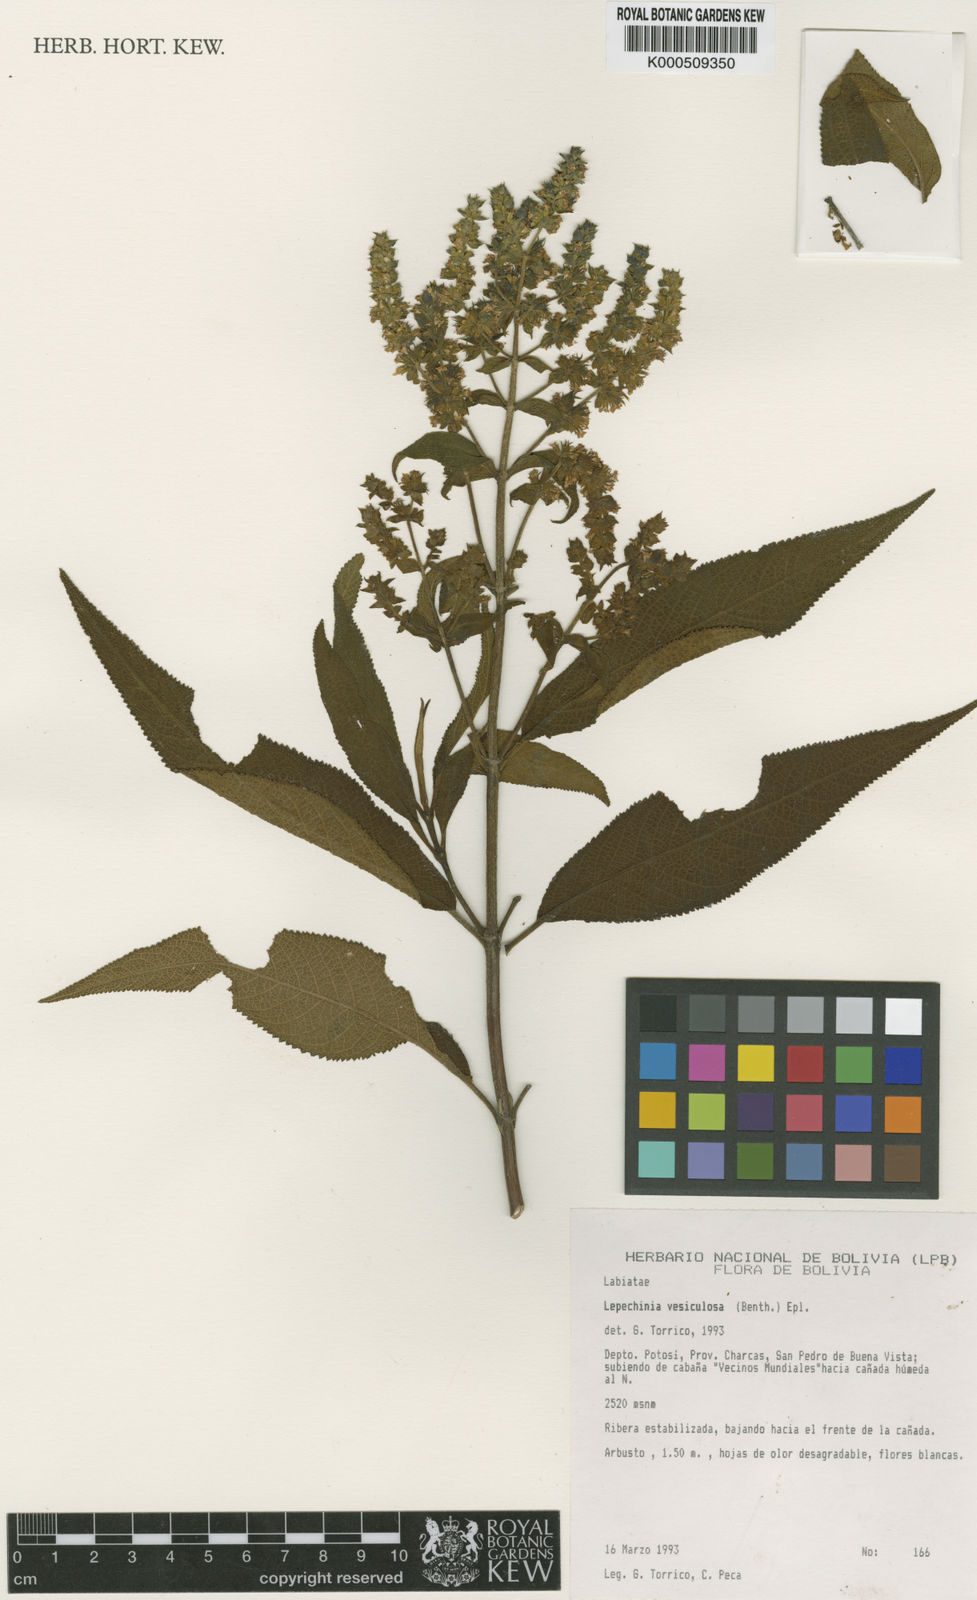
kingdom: Plantae
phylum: Tracheophyta
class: Magnoliopsida
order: Lamiales
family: Lamiaceae
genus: Lepechinia
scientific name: Lepechinia vesiculosa
